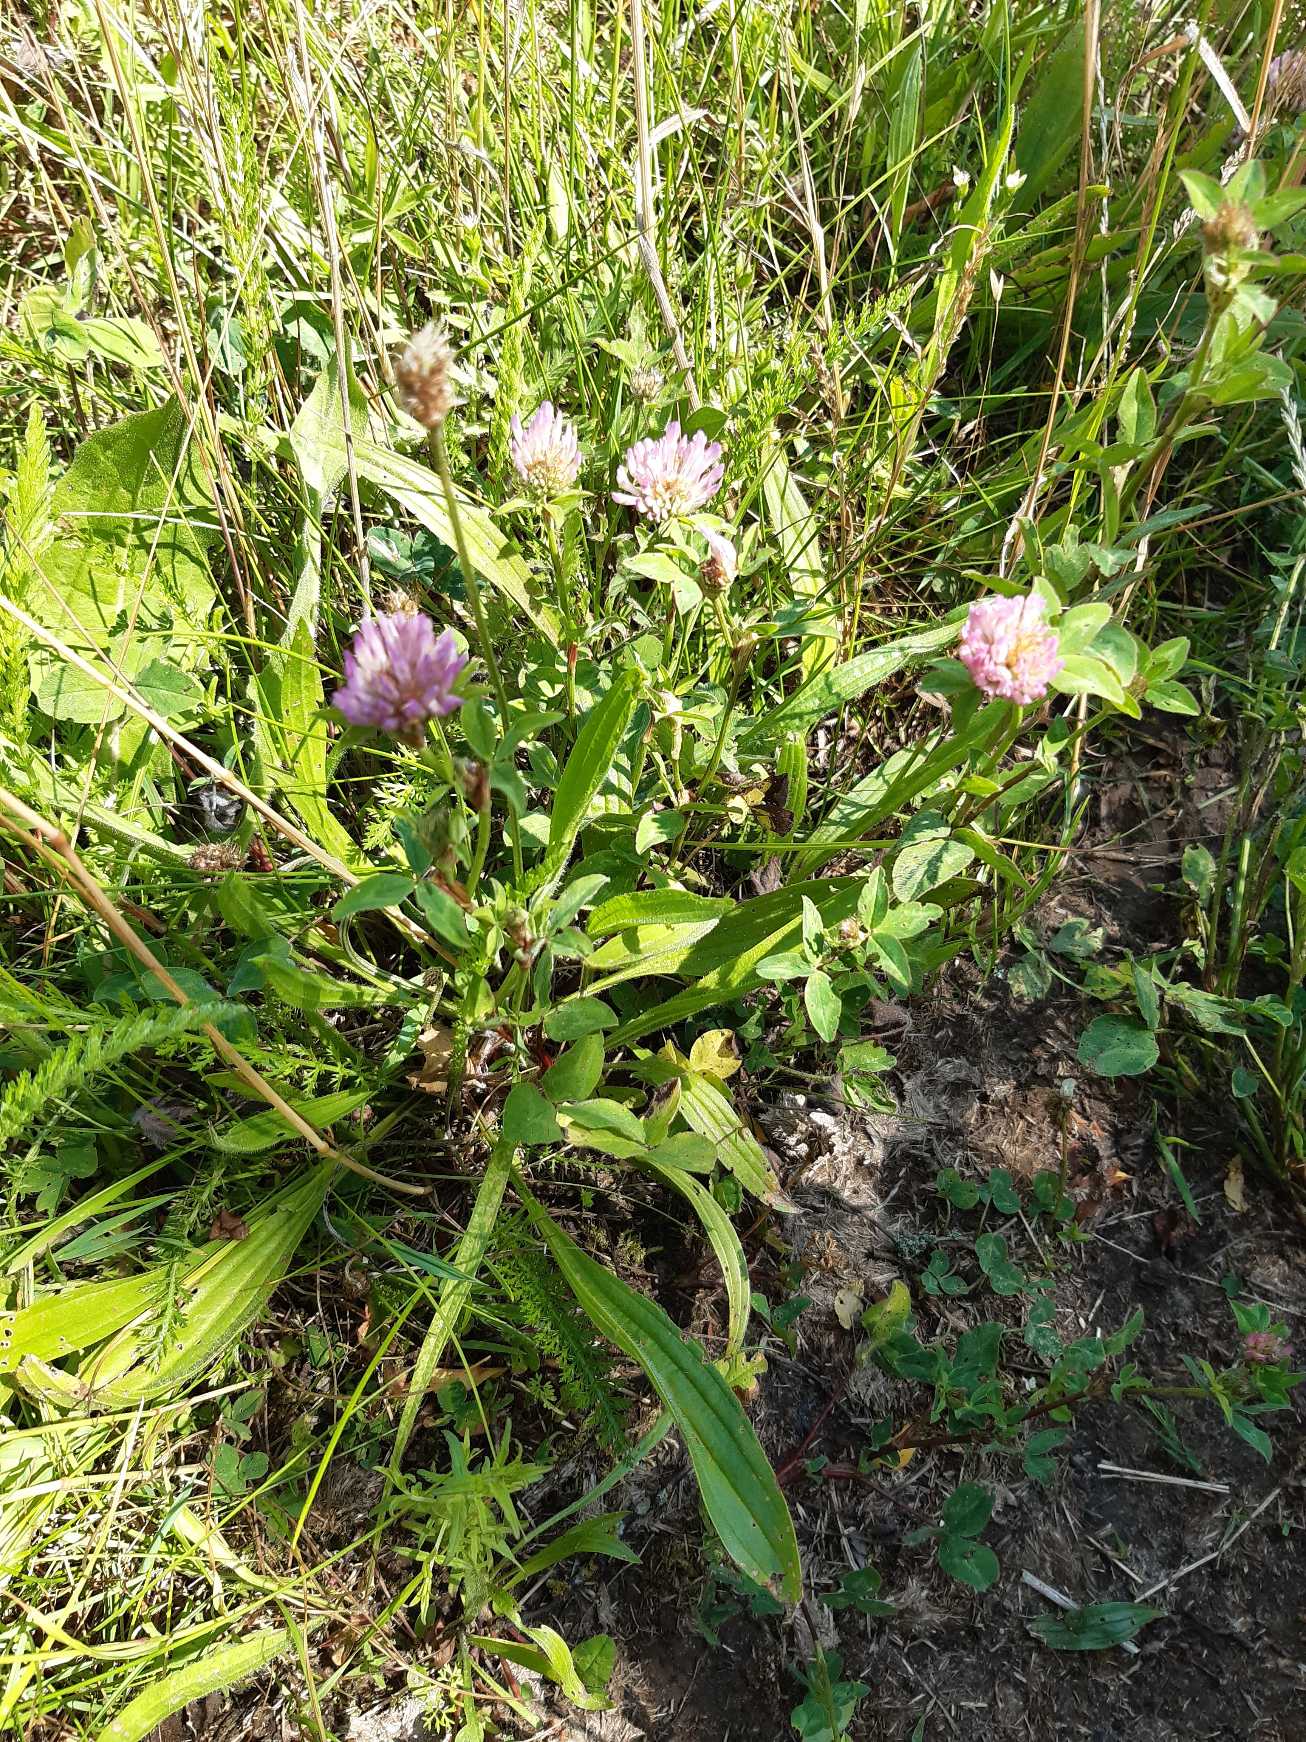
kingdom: Plantae
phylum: Tracheophyta
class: Magnoliopsida
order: Fabales
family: Fabaceae
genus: Trifolium
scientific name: Trifolium pratense
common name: Rød-kløver
